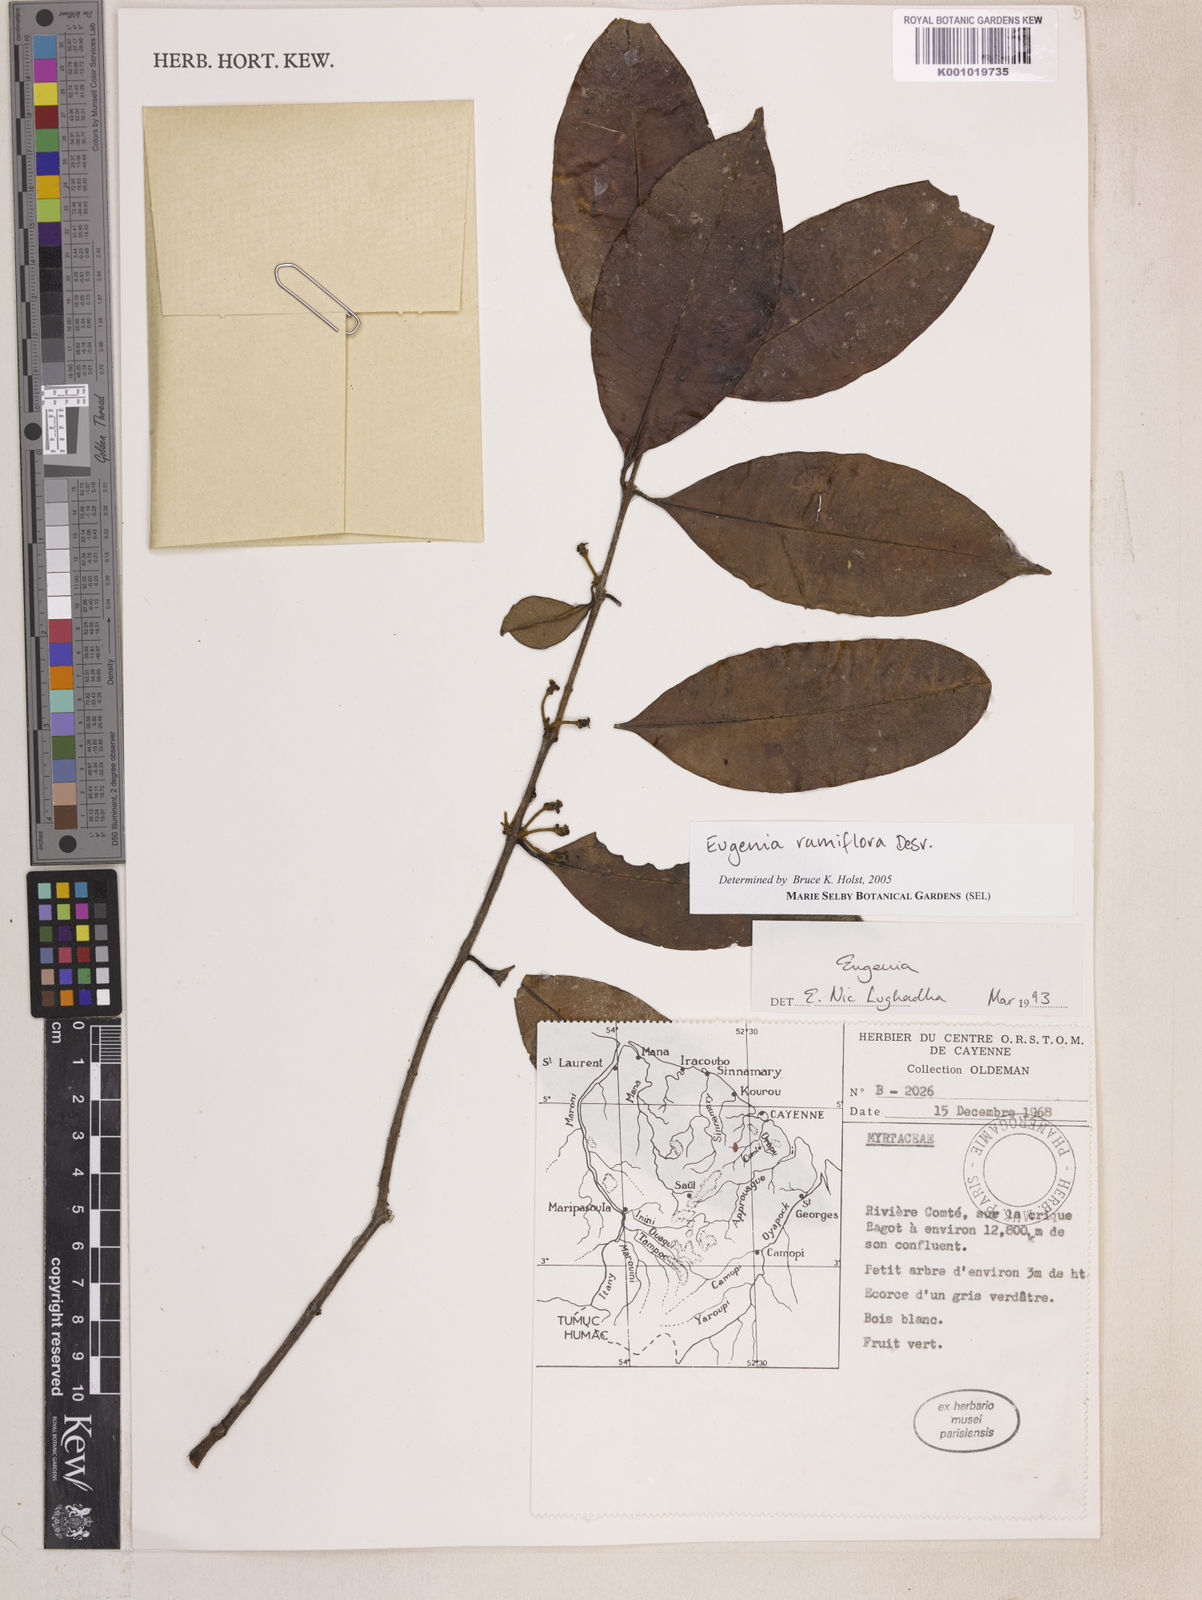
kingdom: Plantae
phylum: Tracheophyta
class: Magnoliopsida
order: Myrtales
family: Myrtaceae
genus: Eugenia
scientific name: Eugenia ramiflora
